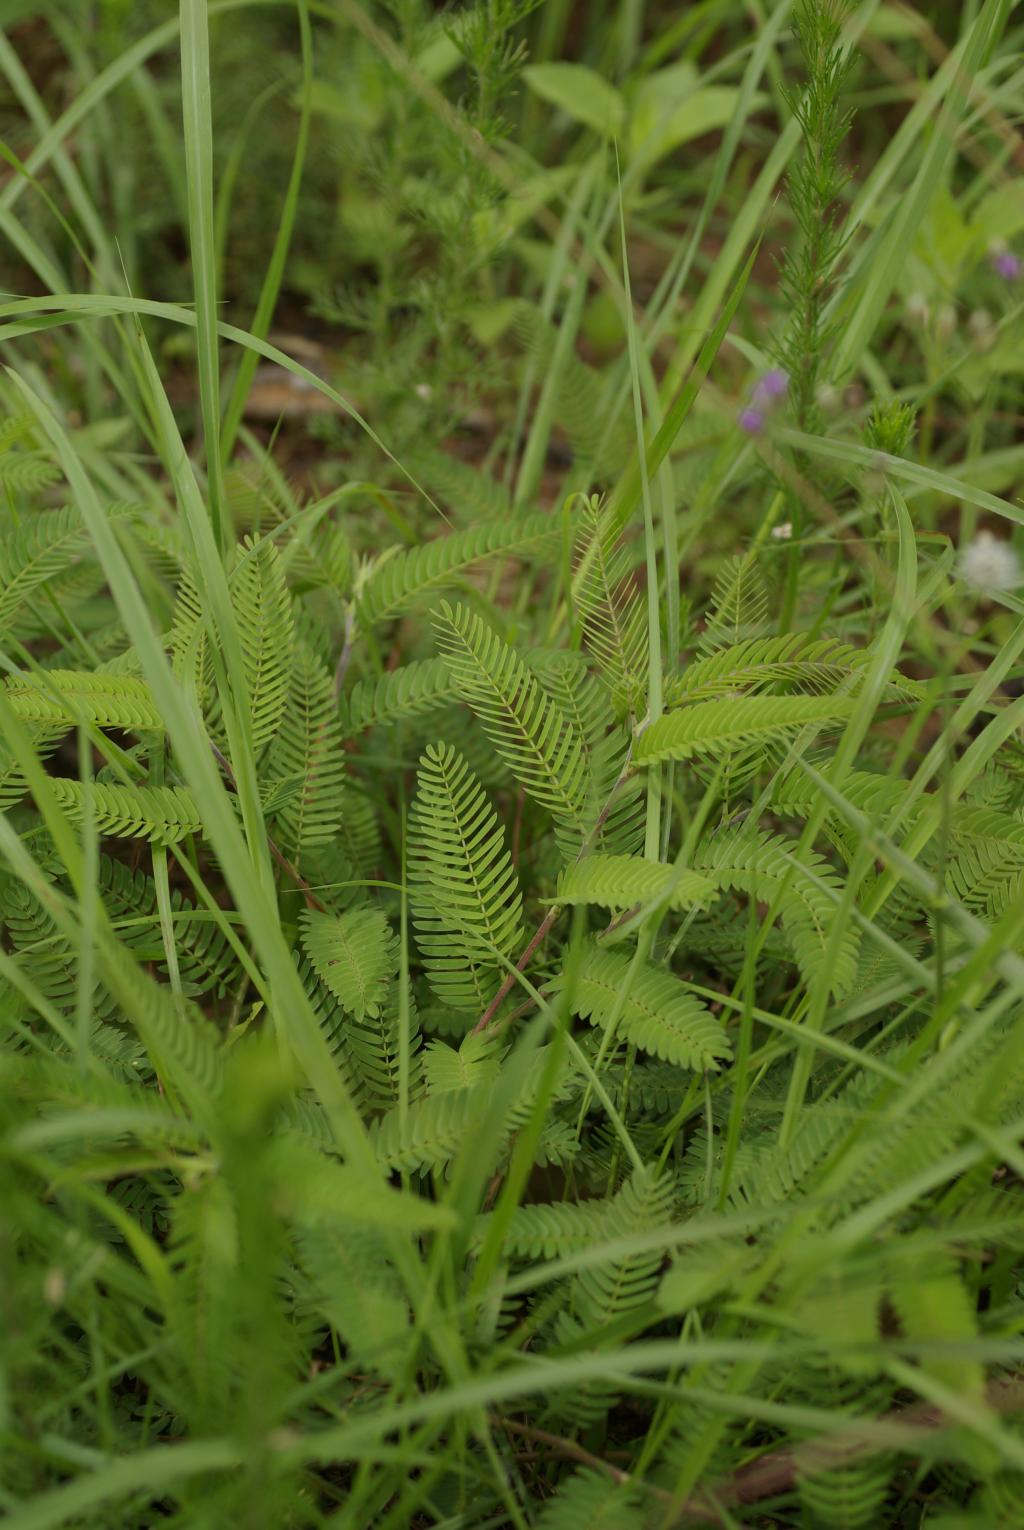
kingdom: Plantae
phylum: Tracheophyta
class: Magnoliopsida
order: Fabales
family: Fabaceae
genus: Chamaecrista
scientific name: Chamaecrista nictitans
